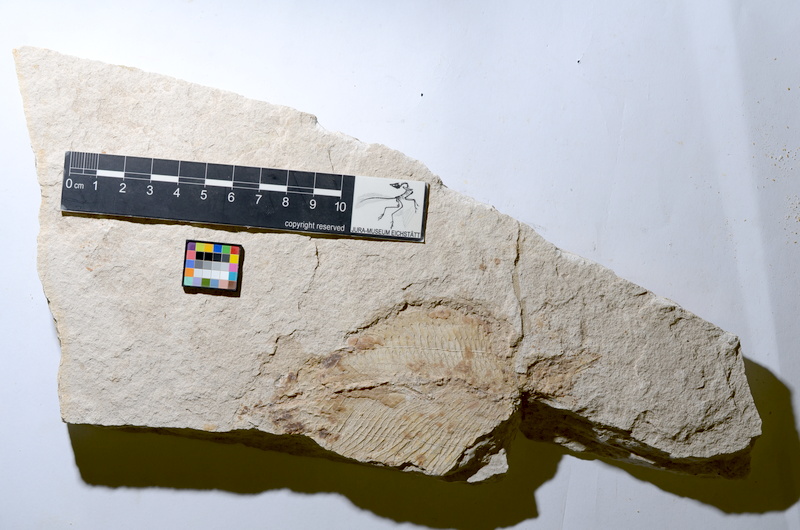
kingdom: Animalia
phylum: Chordata
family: Ankylophoridae
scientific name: Ankylophoridae
